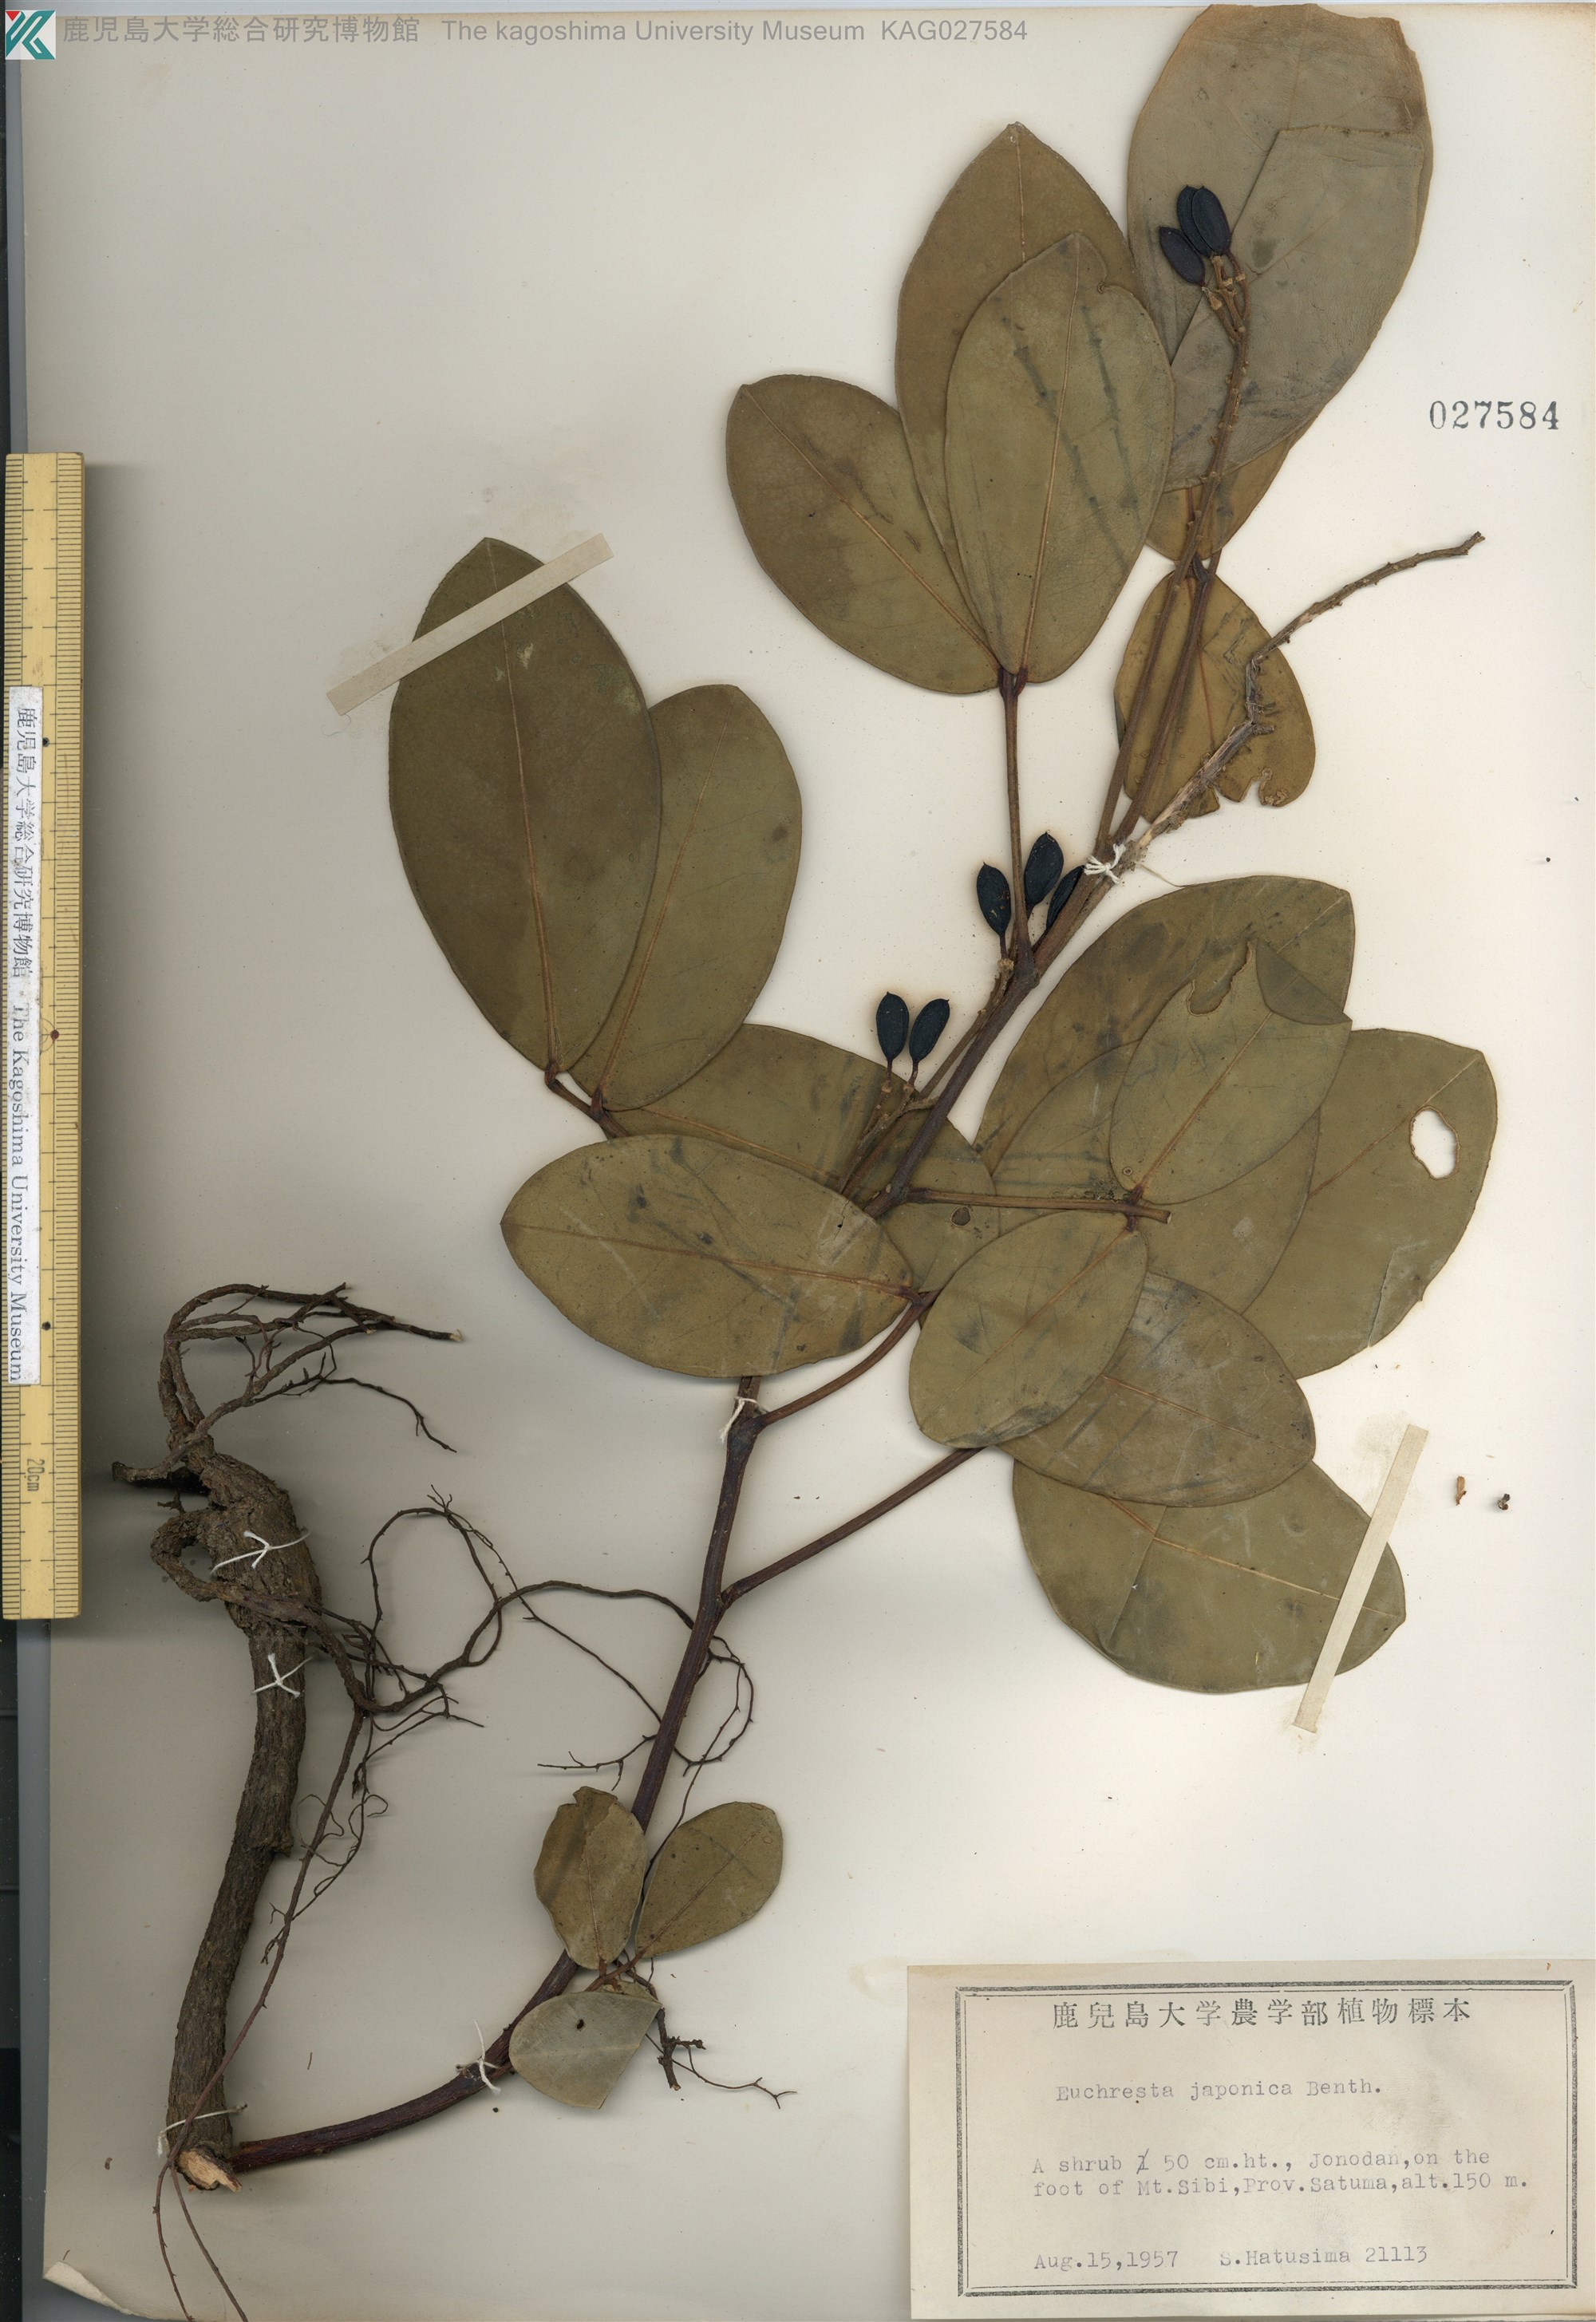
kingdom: Plantae
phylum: Tracheophyta
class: Magnoliopsida
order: Fabales
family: Fabaceae
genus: Euchresta
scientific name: Euchresta japonica
